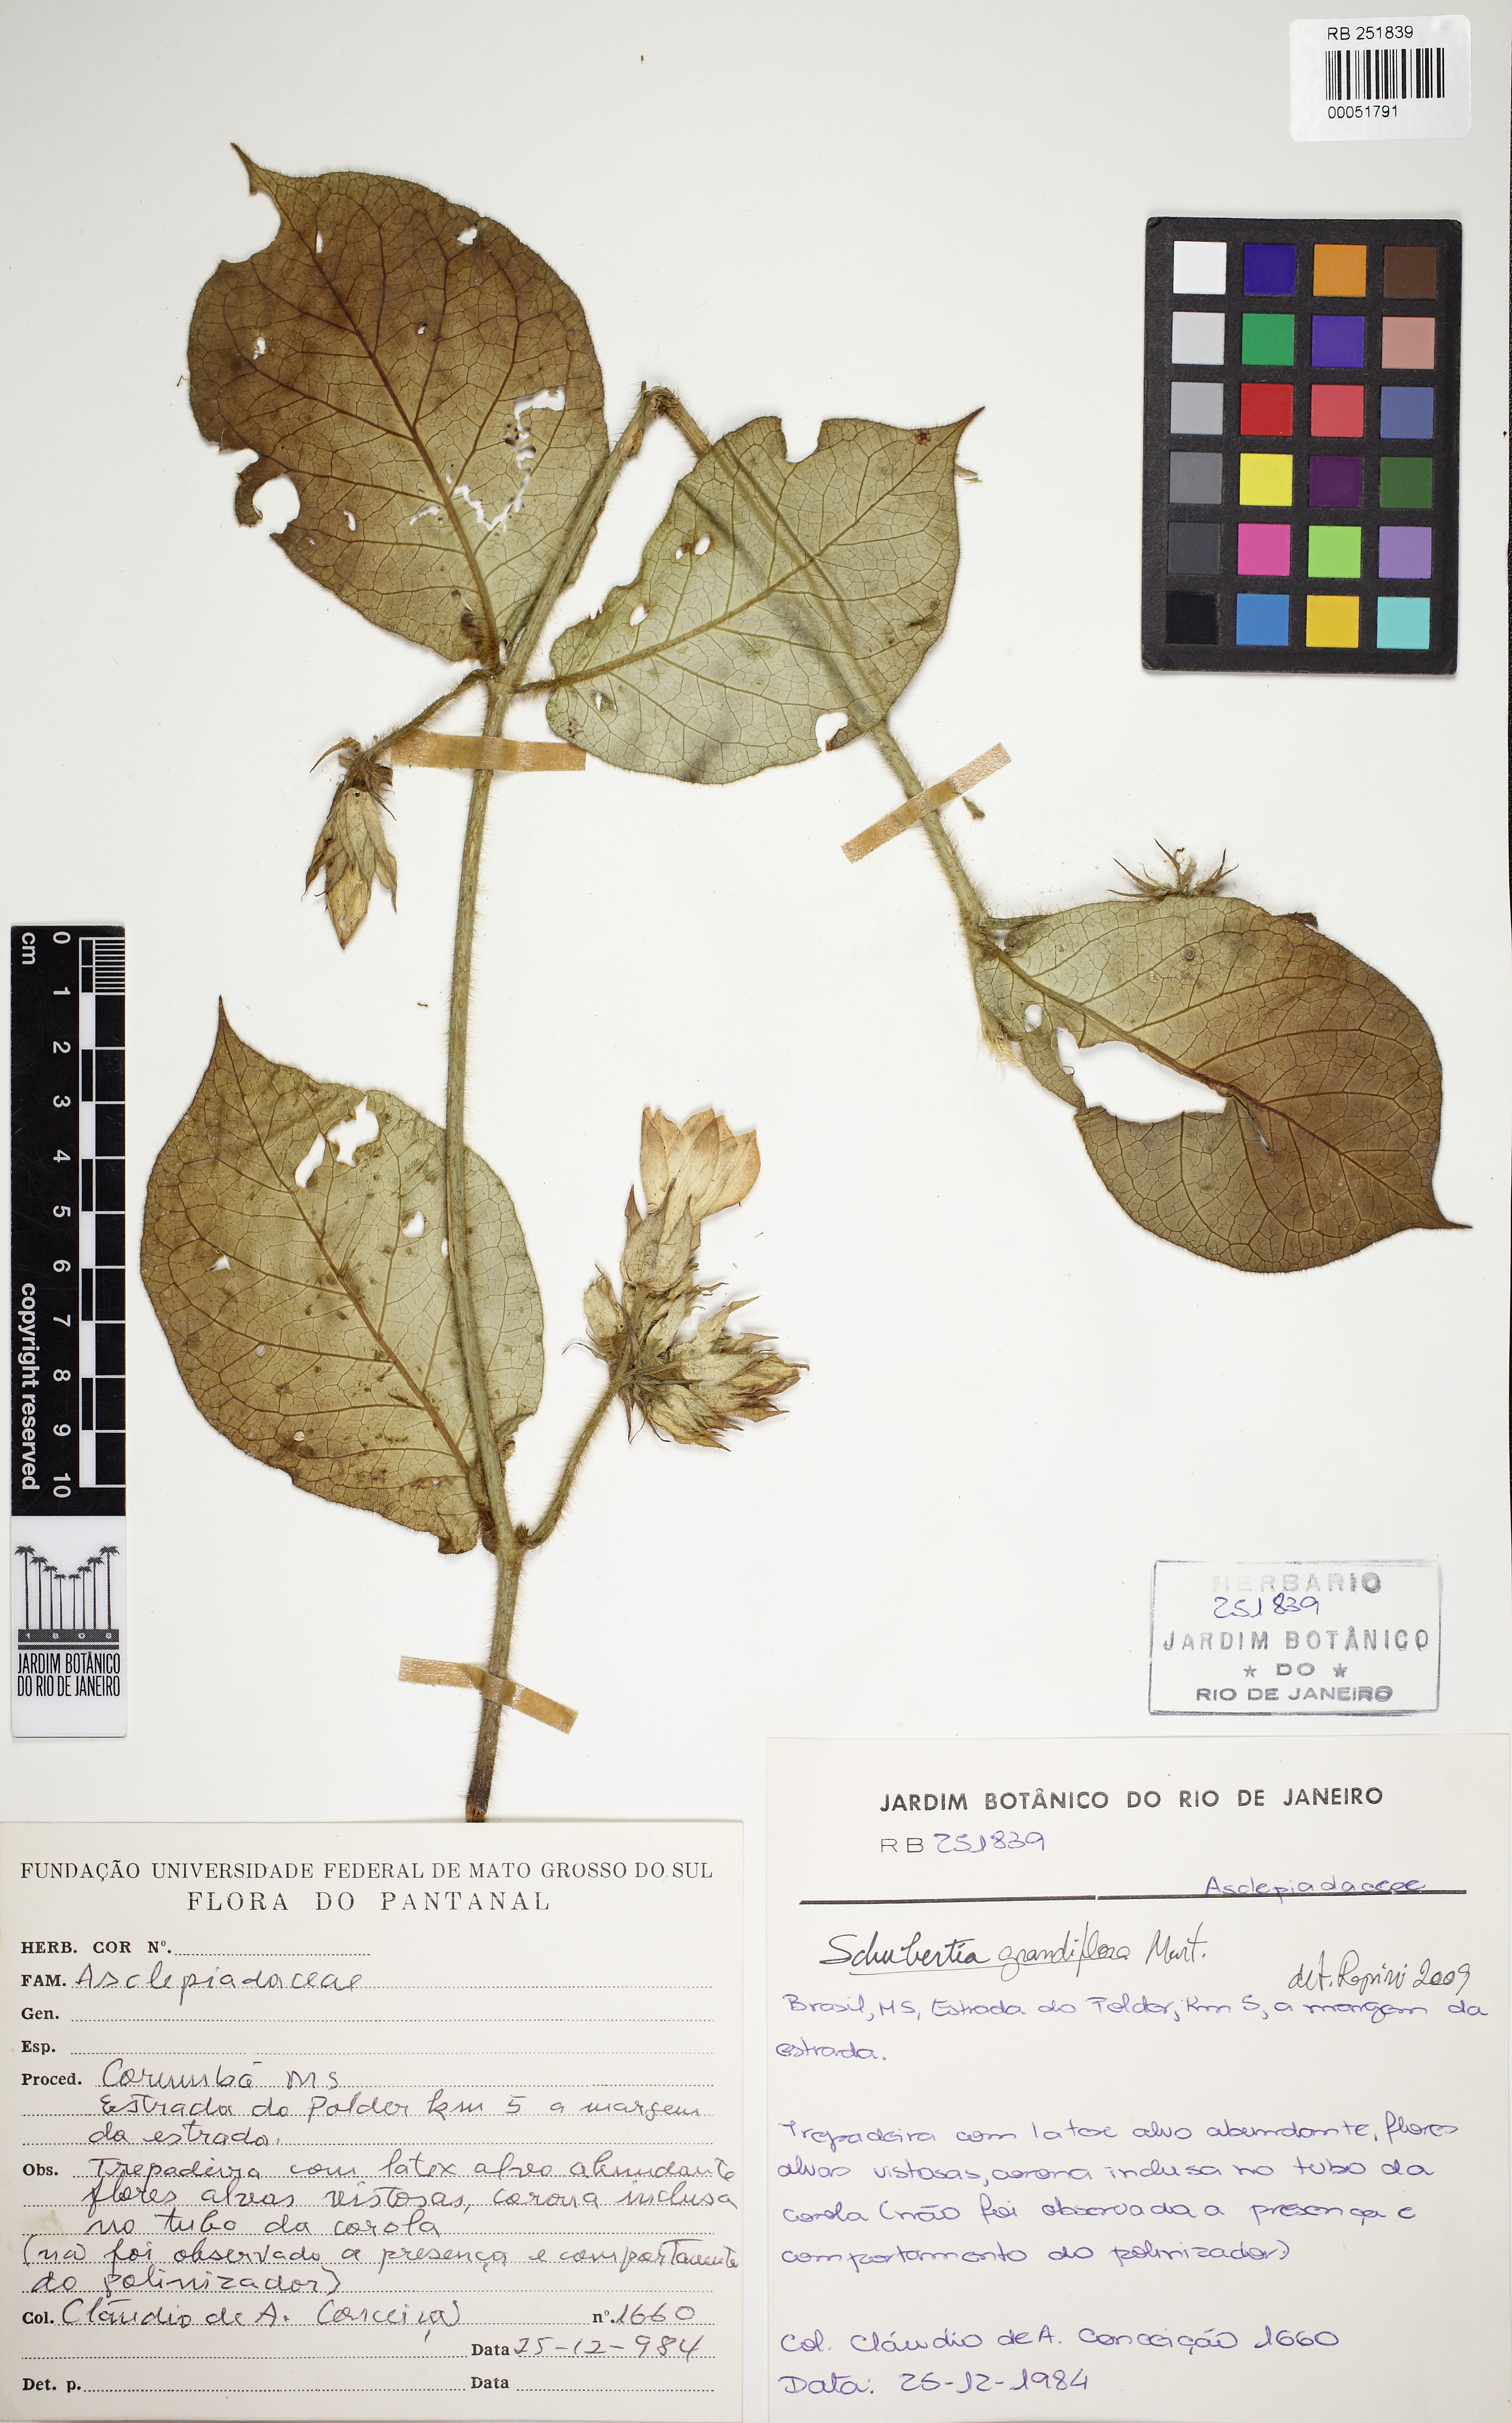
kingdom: Plantae
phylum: Tracheophyta
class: Magnoliopsida
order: Gentianales
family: Apocynaceae
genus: Macroscepis
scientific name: Macroscepis grandiflora
